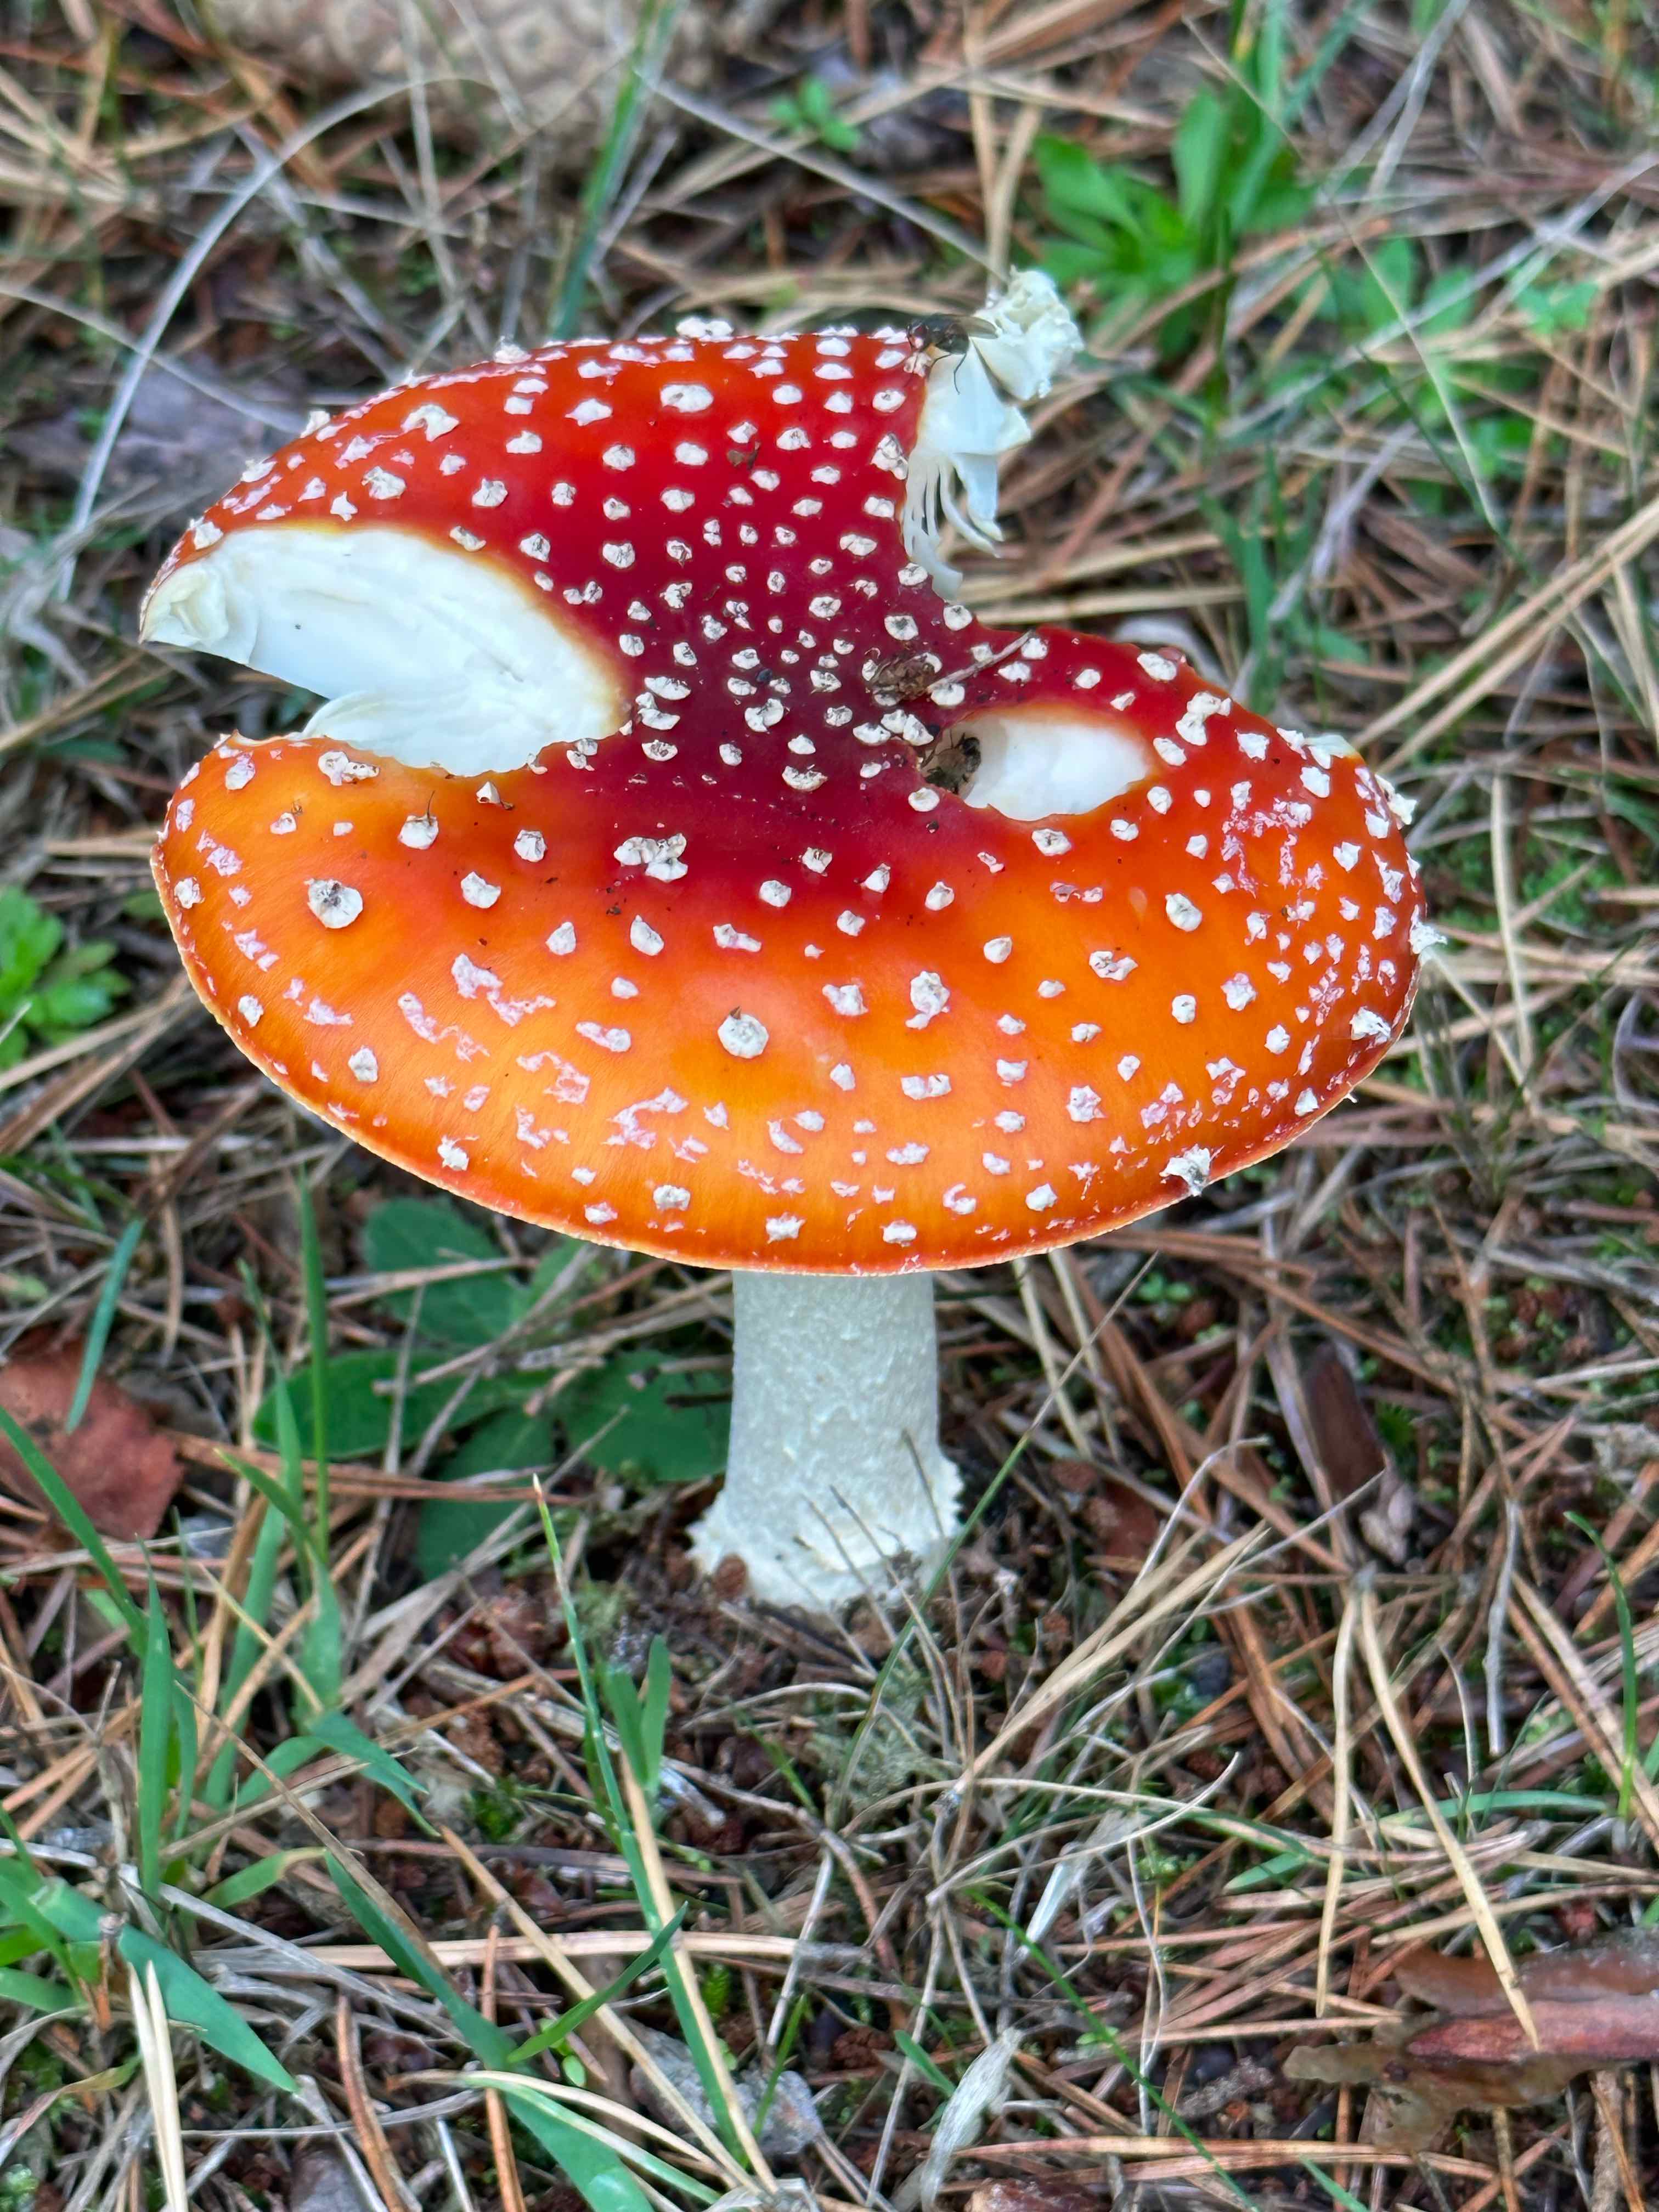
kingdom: Fungi
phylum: Basidiomycota
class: Agaricomycetes
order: Agaricales
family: Amanitaceae
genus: Amanita
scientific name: Amanita muscaria
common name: rød fluesvamp
